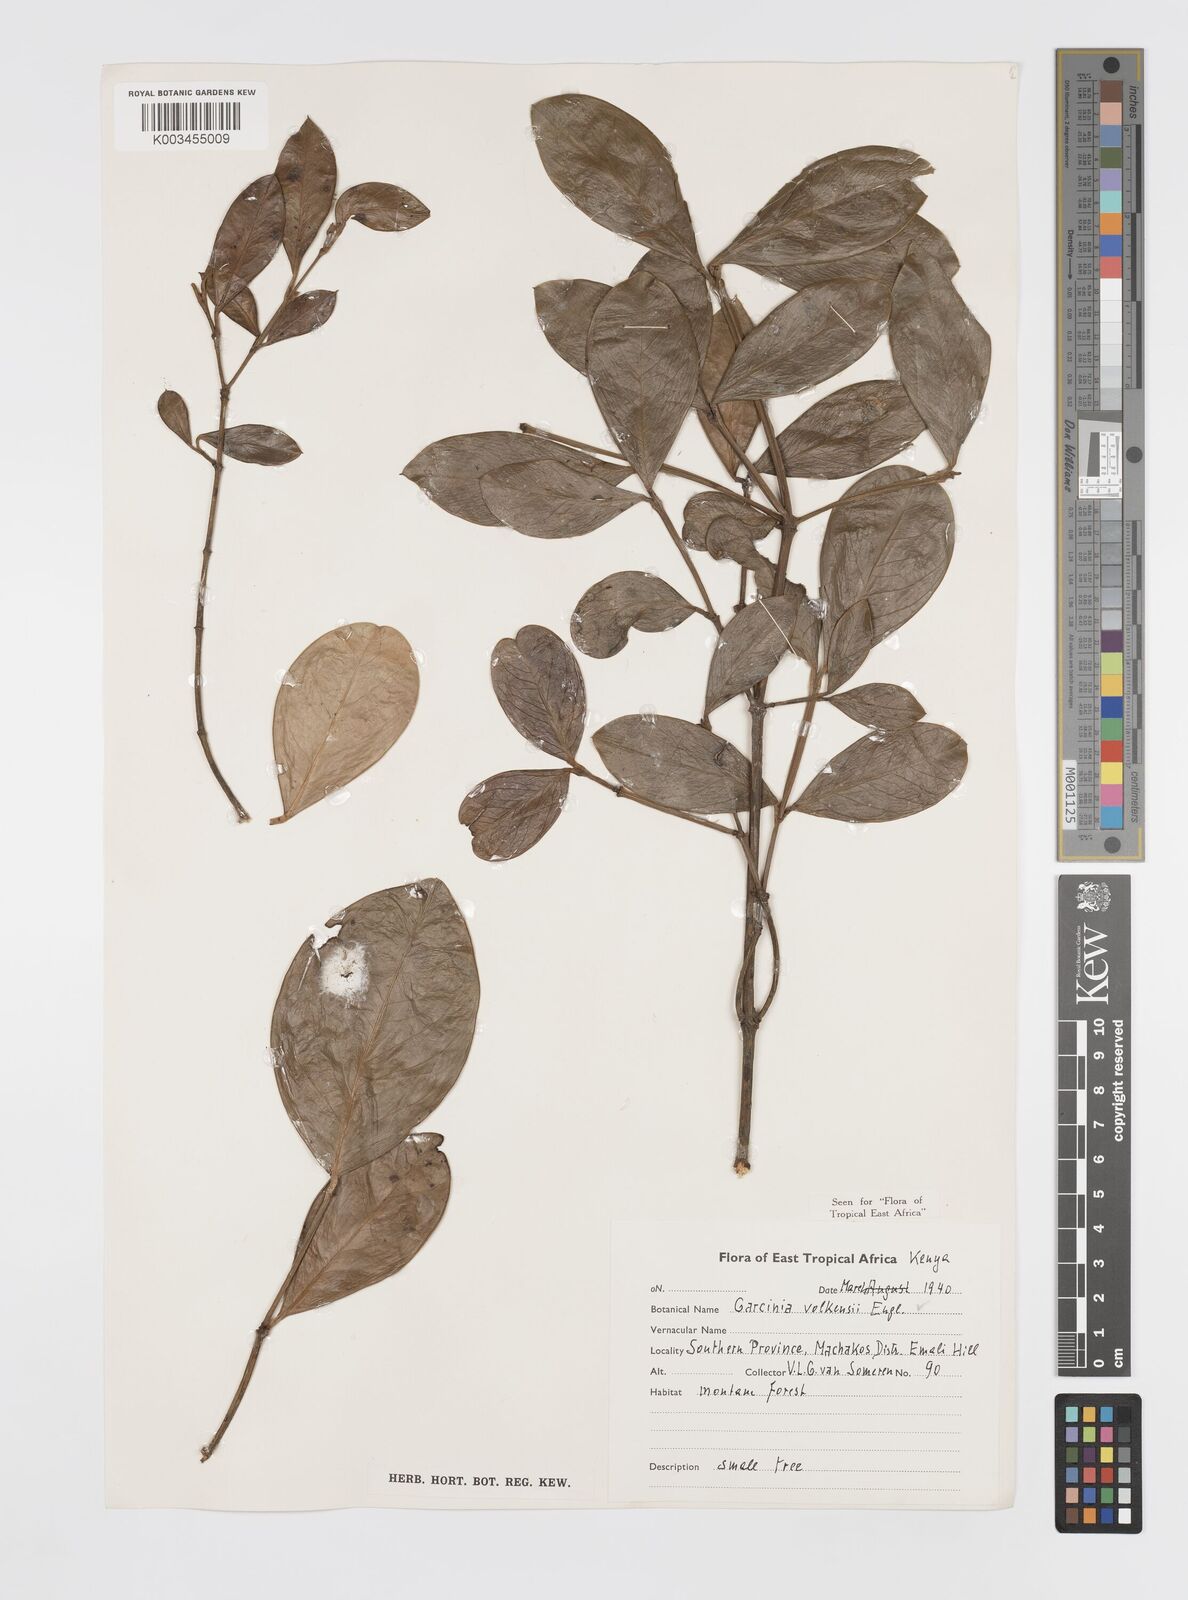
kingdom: Plantae
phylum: Tracheophyta
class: Magnoliopsida
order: Malpighiales
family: Clusiaceae
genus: Garcinia
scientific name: Garcinia volkensii
